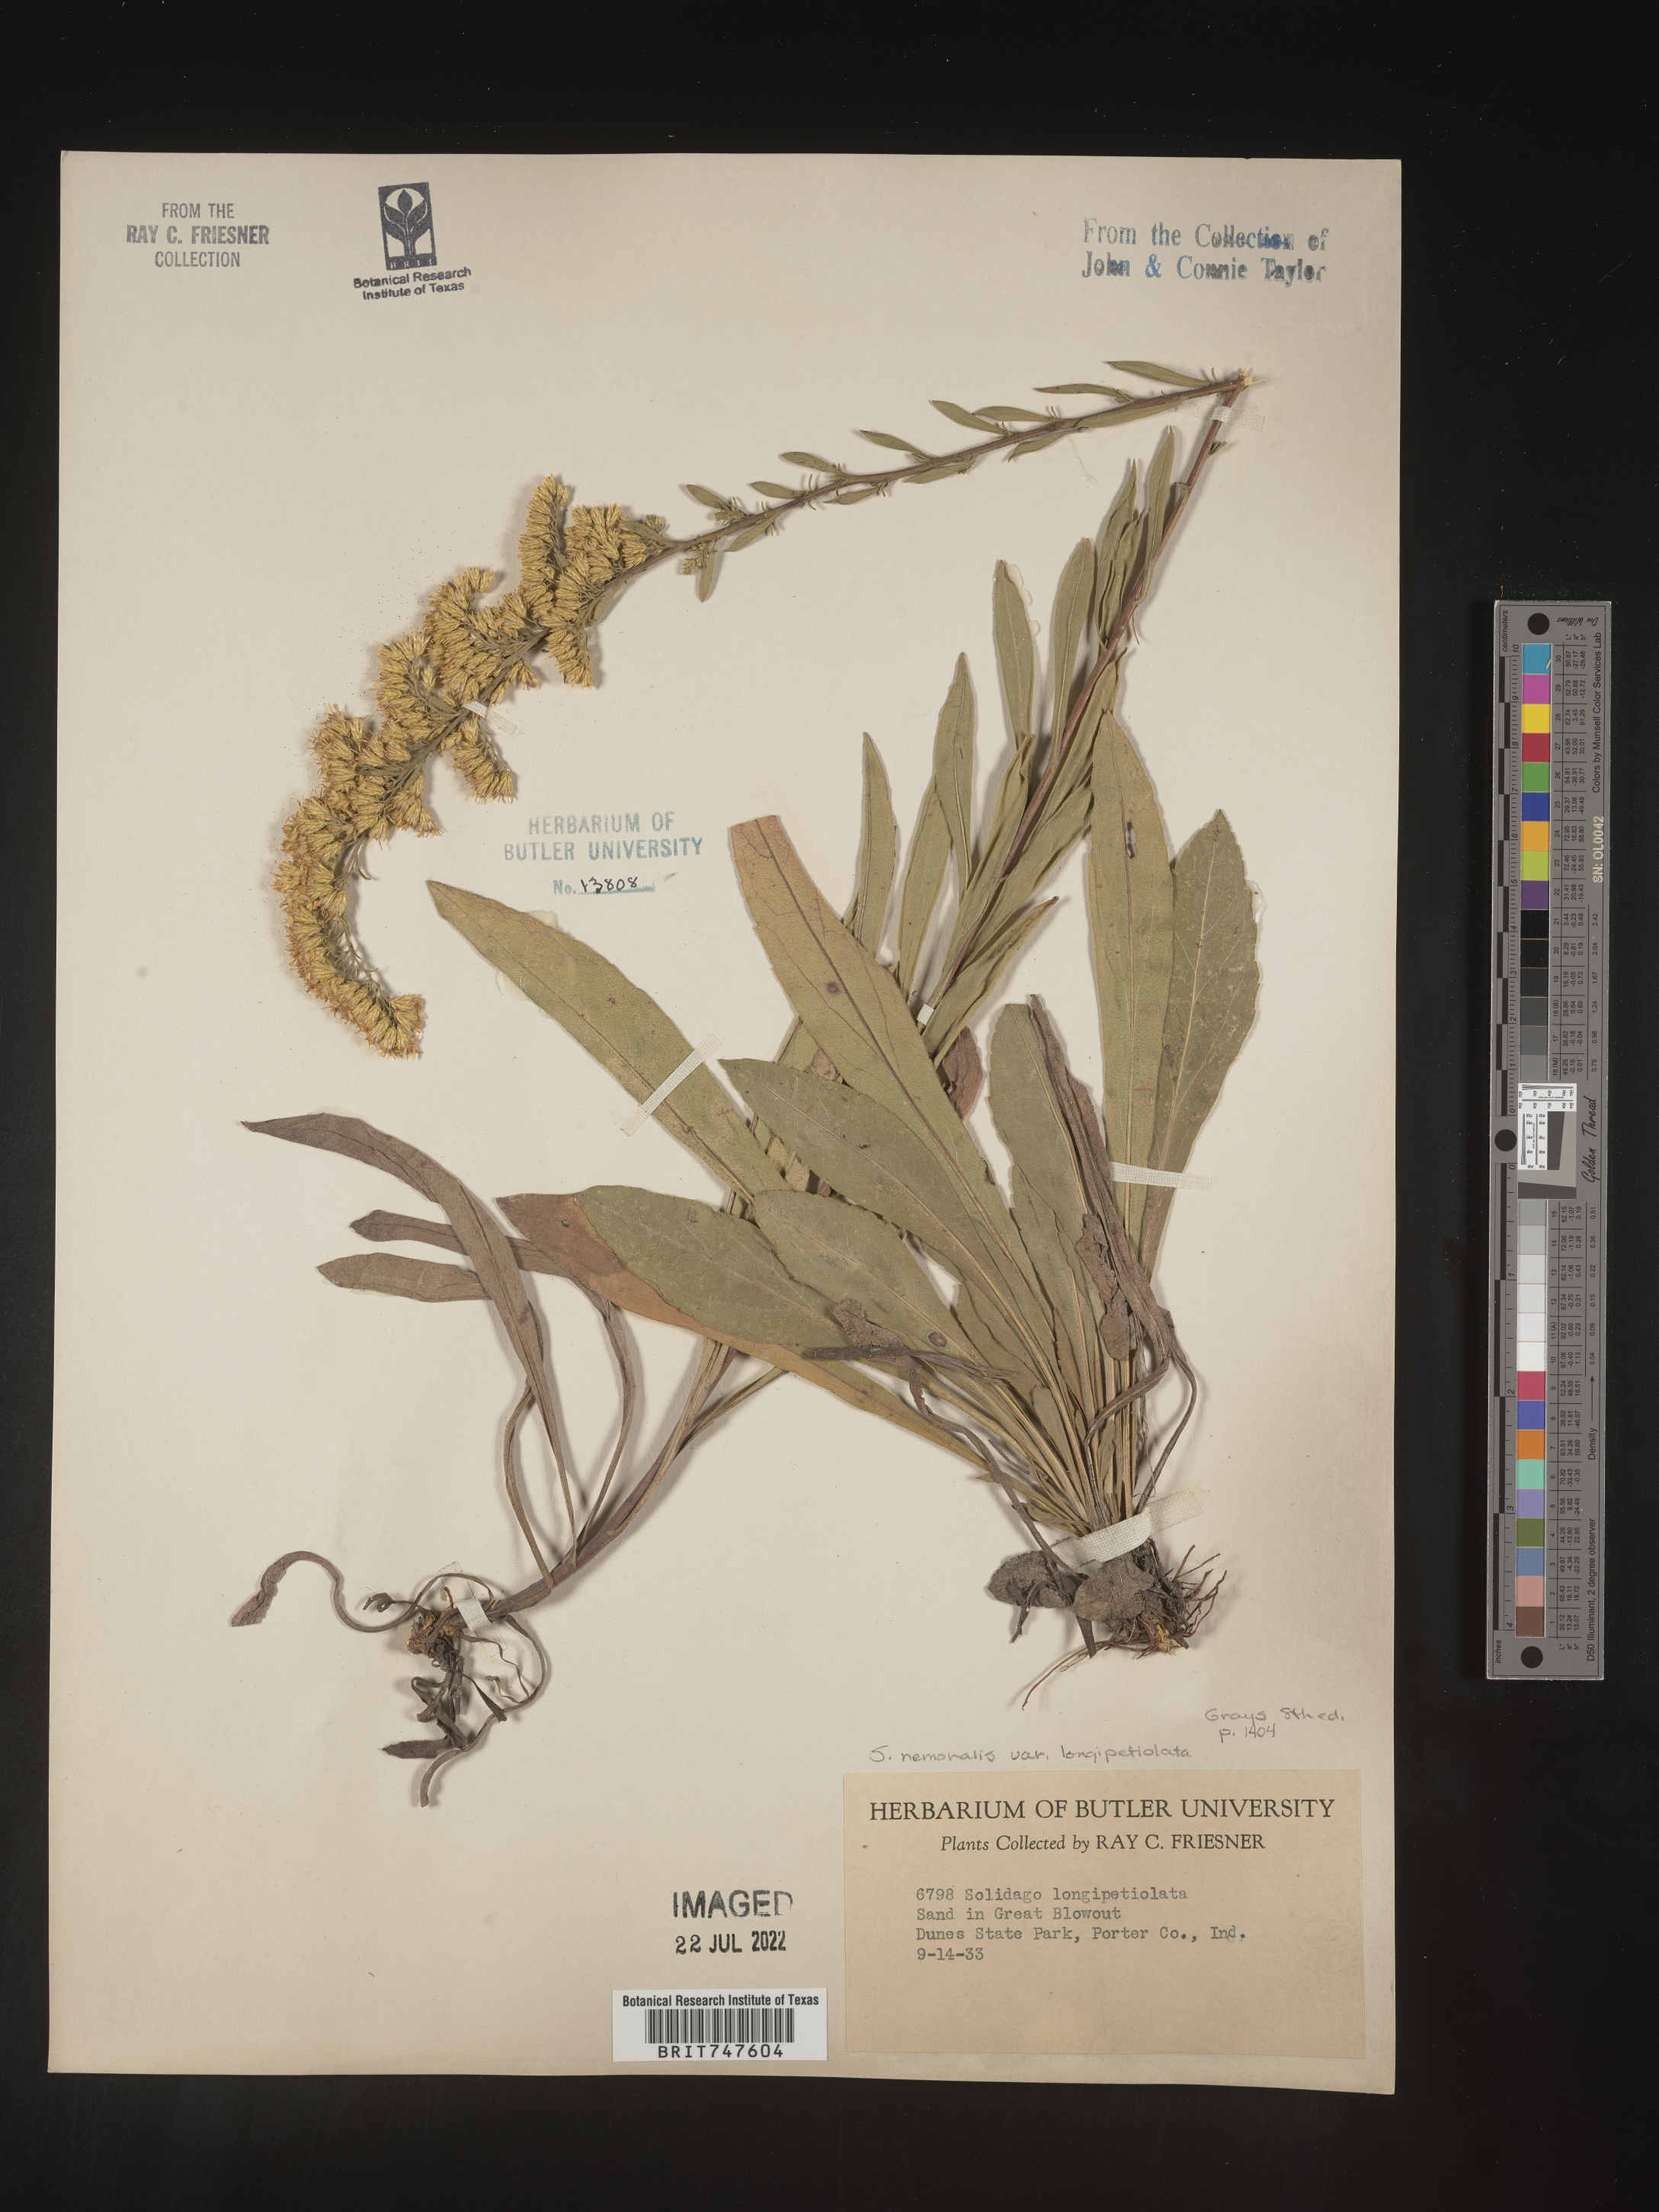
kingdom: Plantae
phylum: Tracheophyta
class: Magnoliopsida
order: Asterales
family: Asteraceae
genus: Solidago
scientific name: Solidago nemoralis
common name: Grey goldenrod
